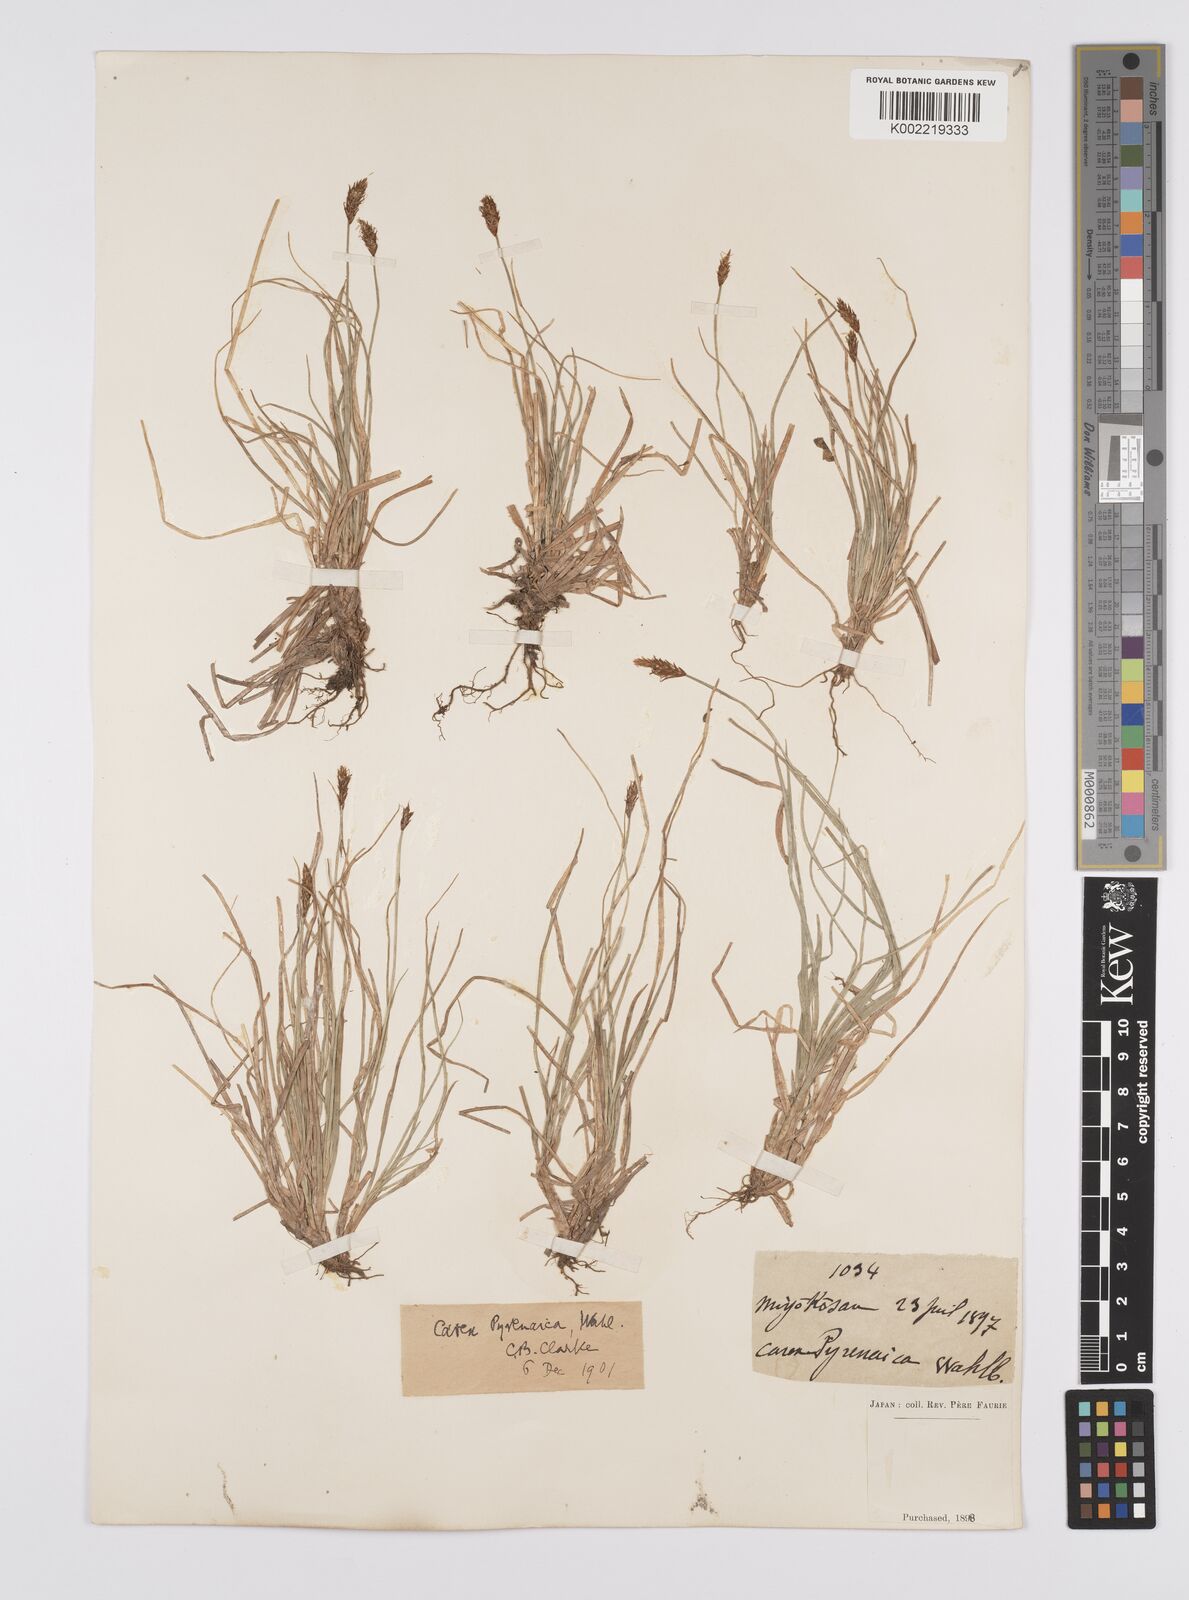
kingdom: Plantae
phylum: Tracheophyta
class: Liliopsida
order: Poales
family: Cyperaceae
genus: Carex
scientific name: Carex pyrenaica
